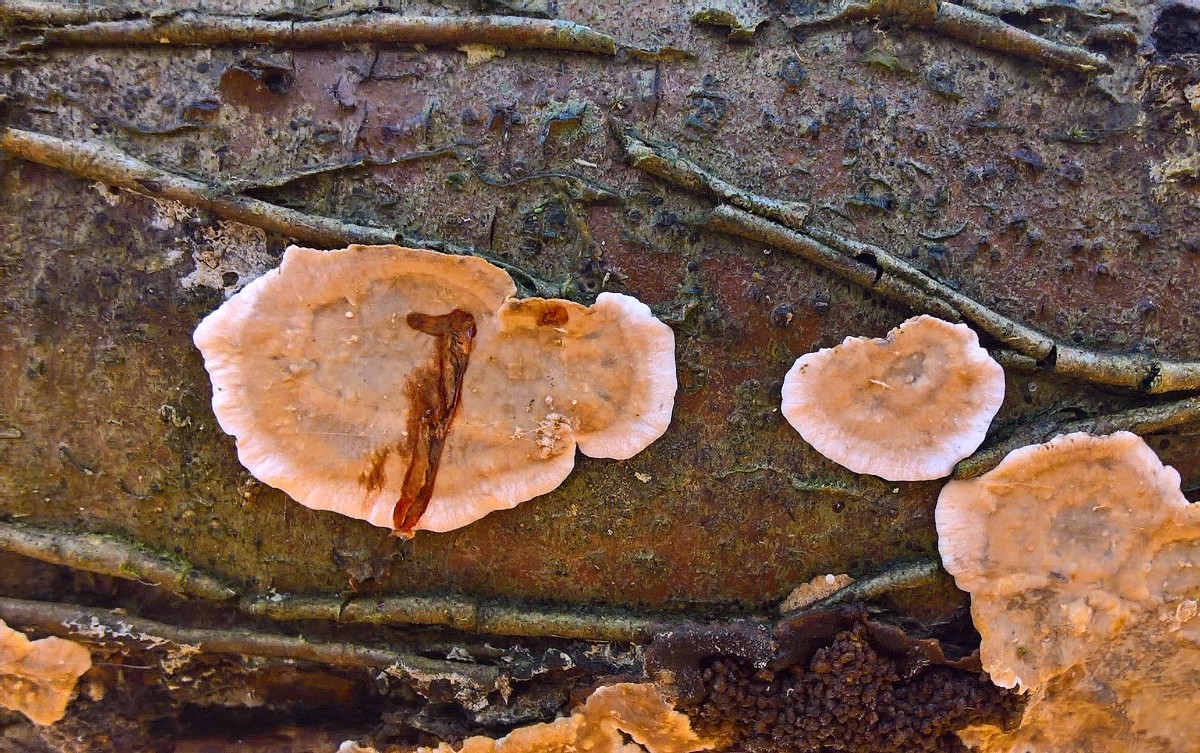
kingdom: Fungi
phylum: Basidiomycota
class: Agaricomycetes
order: Russulales
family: Stereaceae
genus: Stereum
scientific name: Stereum rugosum
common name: rynket lædersvamp
